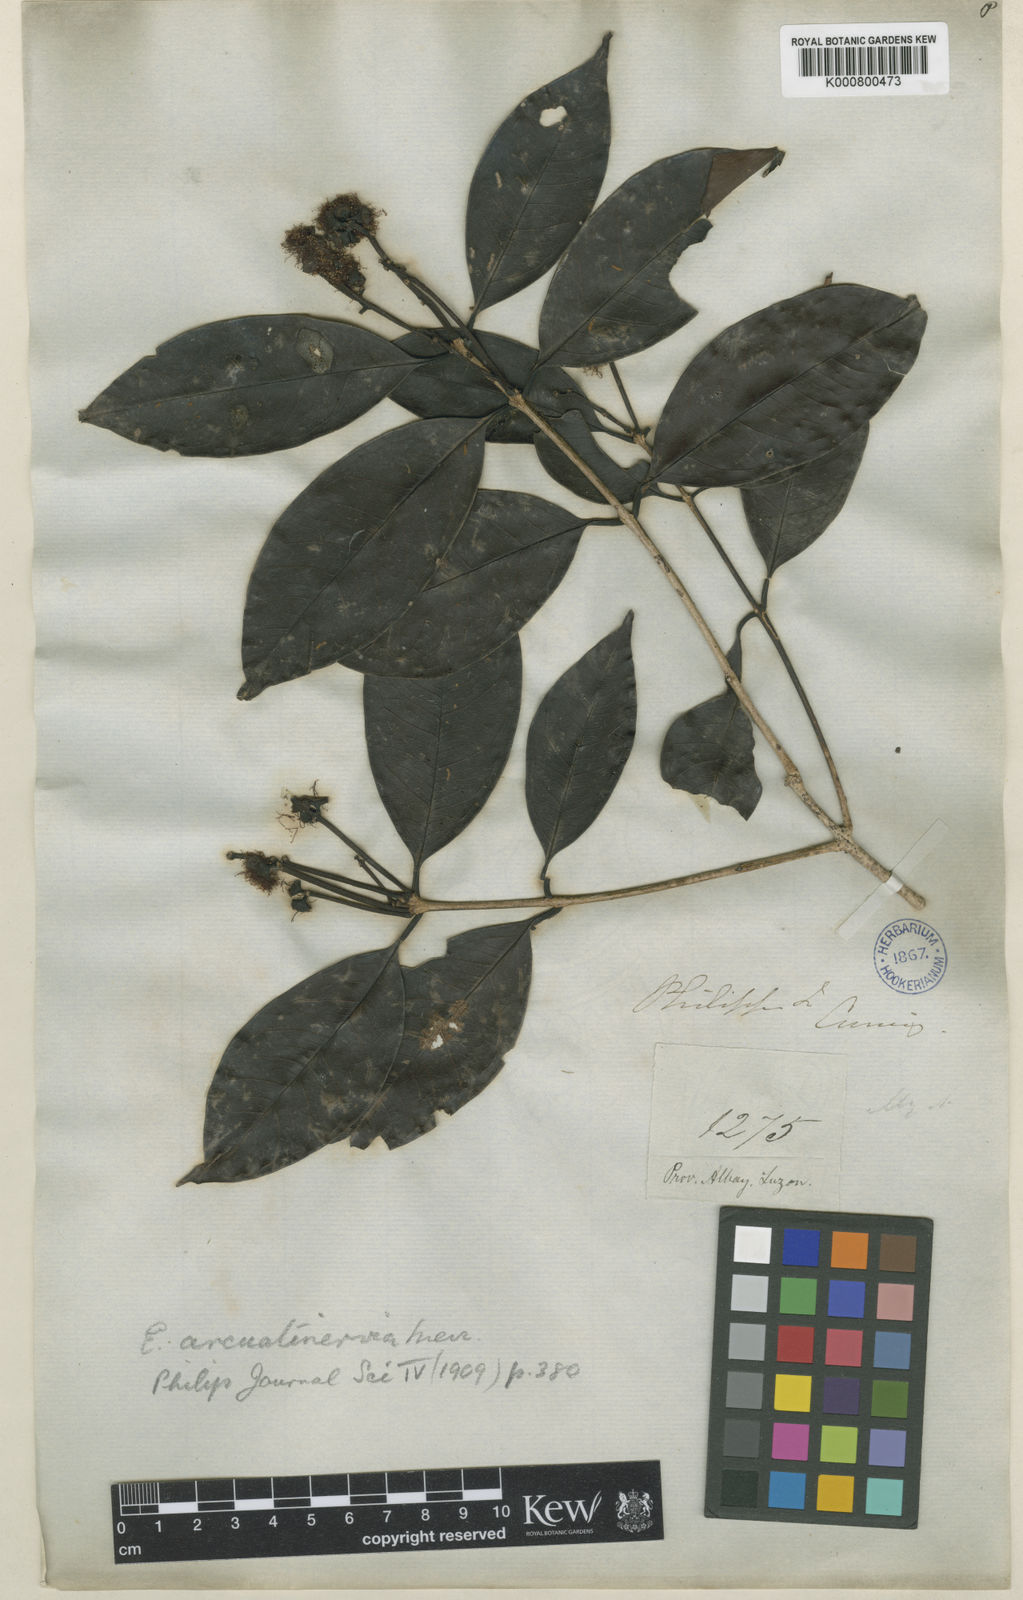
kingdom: Plantae
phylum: Tracheophyta
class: Magnoliopsida
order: Myrtales
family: Myrtaceae
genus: Syzygium
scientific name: Syzygium arcuatinervium
